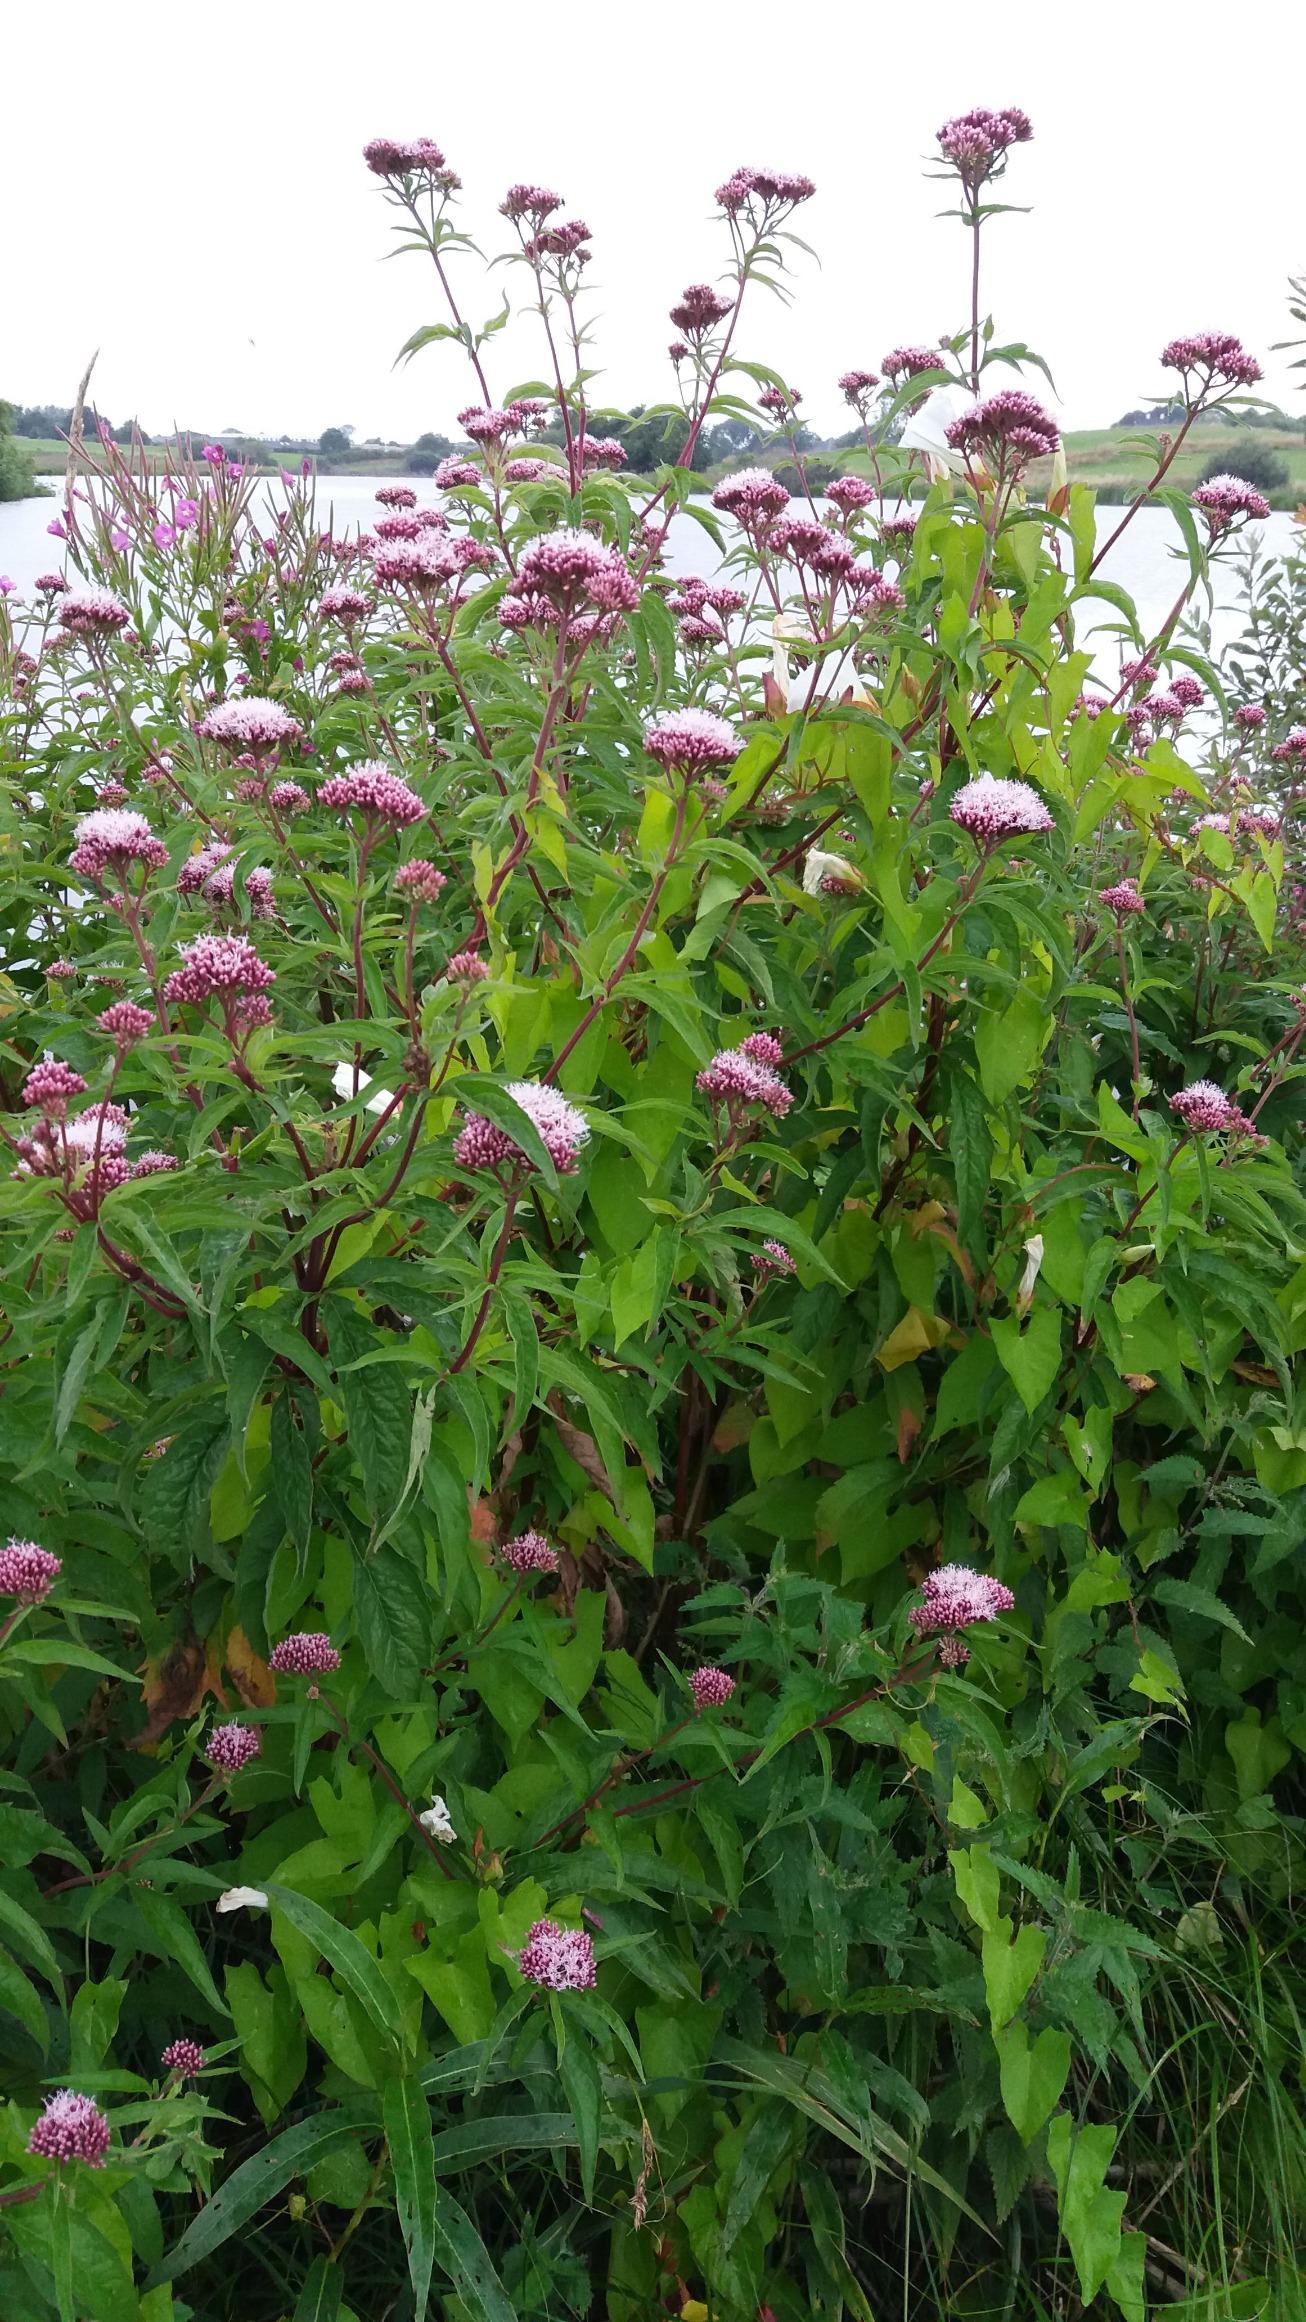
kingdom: Plantae
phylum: Tracheophyta
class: Magnoliopsida
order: Asterales
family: Asteraceae
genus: Eupatorium
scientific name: Eupatorium cannabinum
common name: Hjortetrøst
